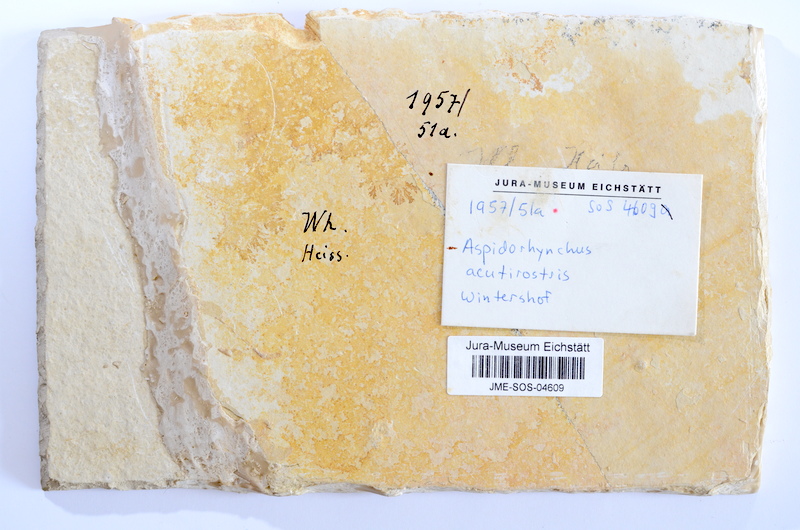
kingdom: Animalia
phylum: Chordata
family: Aspidorhynchidae
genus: Aspidorhynchus
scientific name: Aspidorhynchus acutirostris
